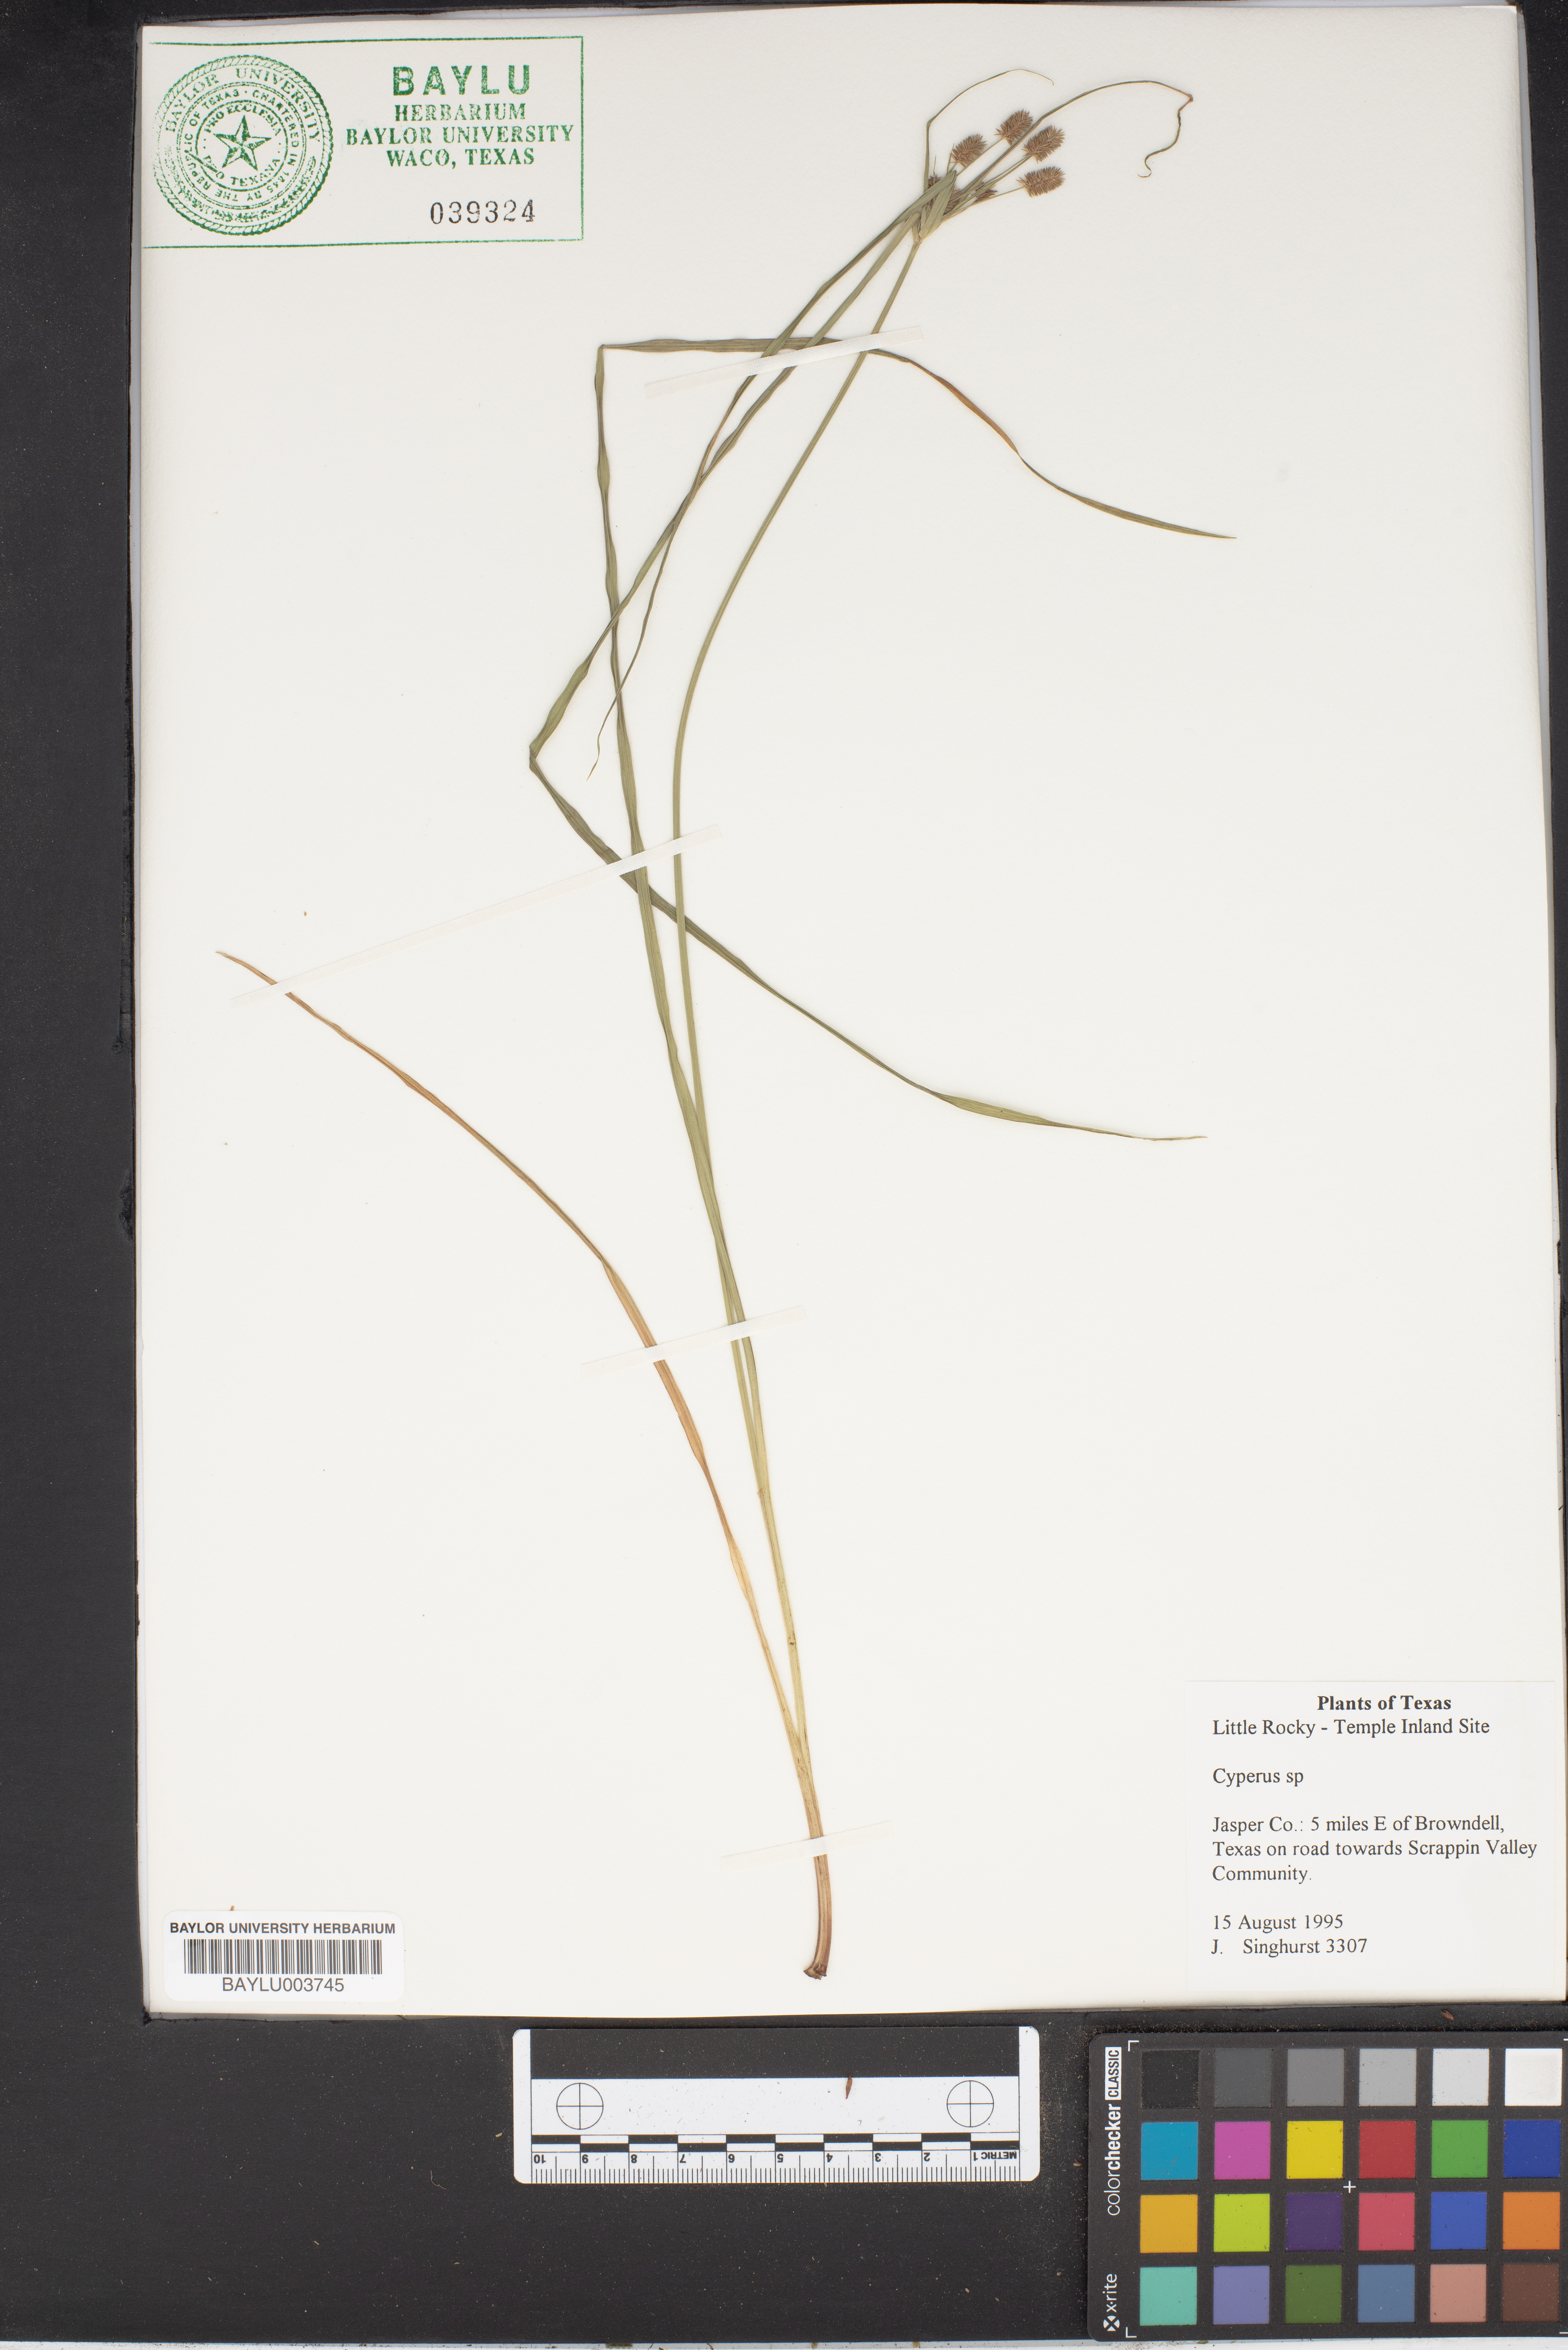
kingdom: Plantae
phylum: Tracheophyta
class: Liliopsida
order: Poales
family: Cyperaceae
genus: Cyperus
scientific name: Cyperus
